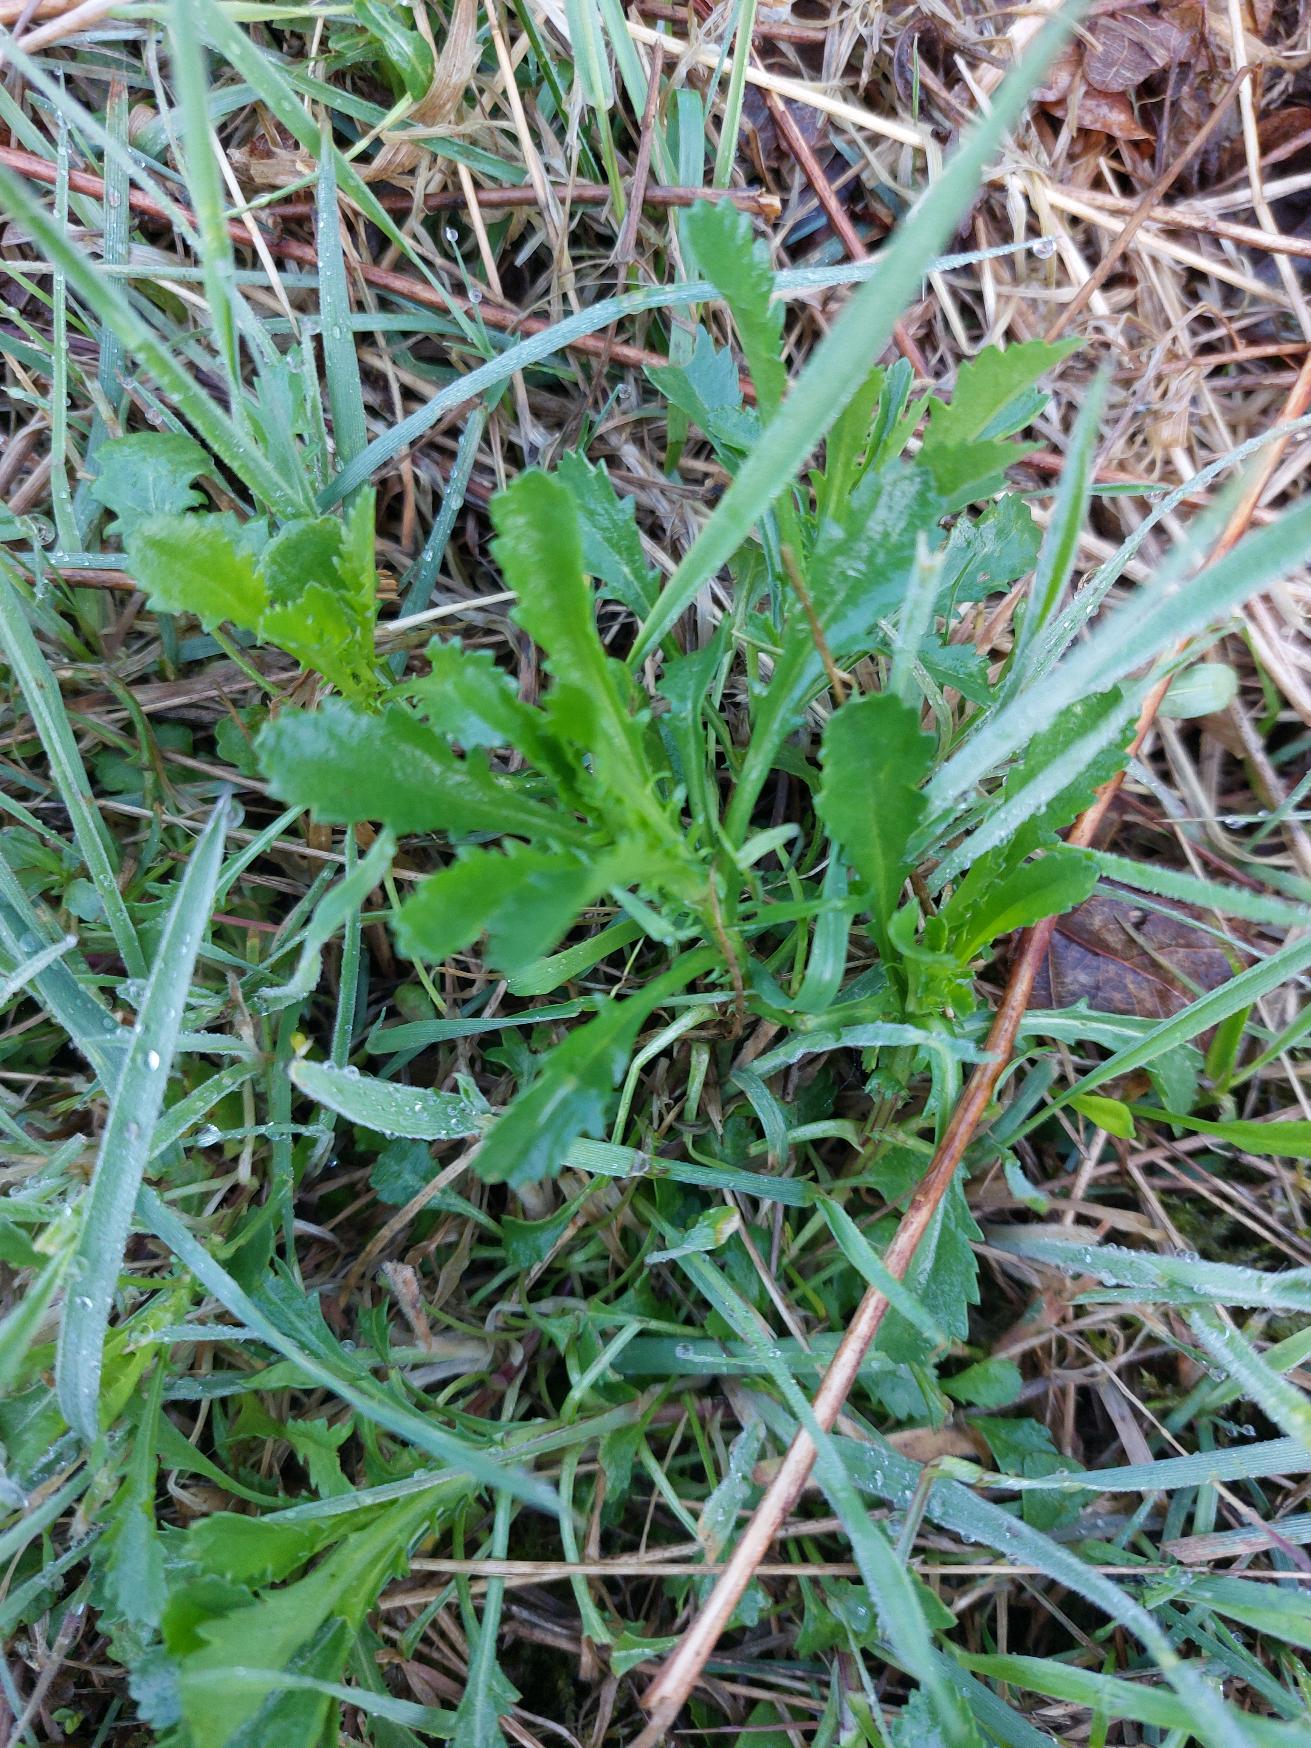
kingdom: Plantae
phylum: Tracheophyta
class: Magnoliopsida
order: Asterales
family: Asteraceae
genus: Leucanthemum
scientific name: Leucanthemum vulgare
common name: Hvid okseøje
